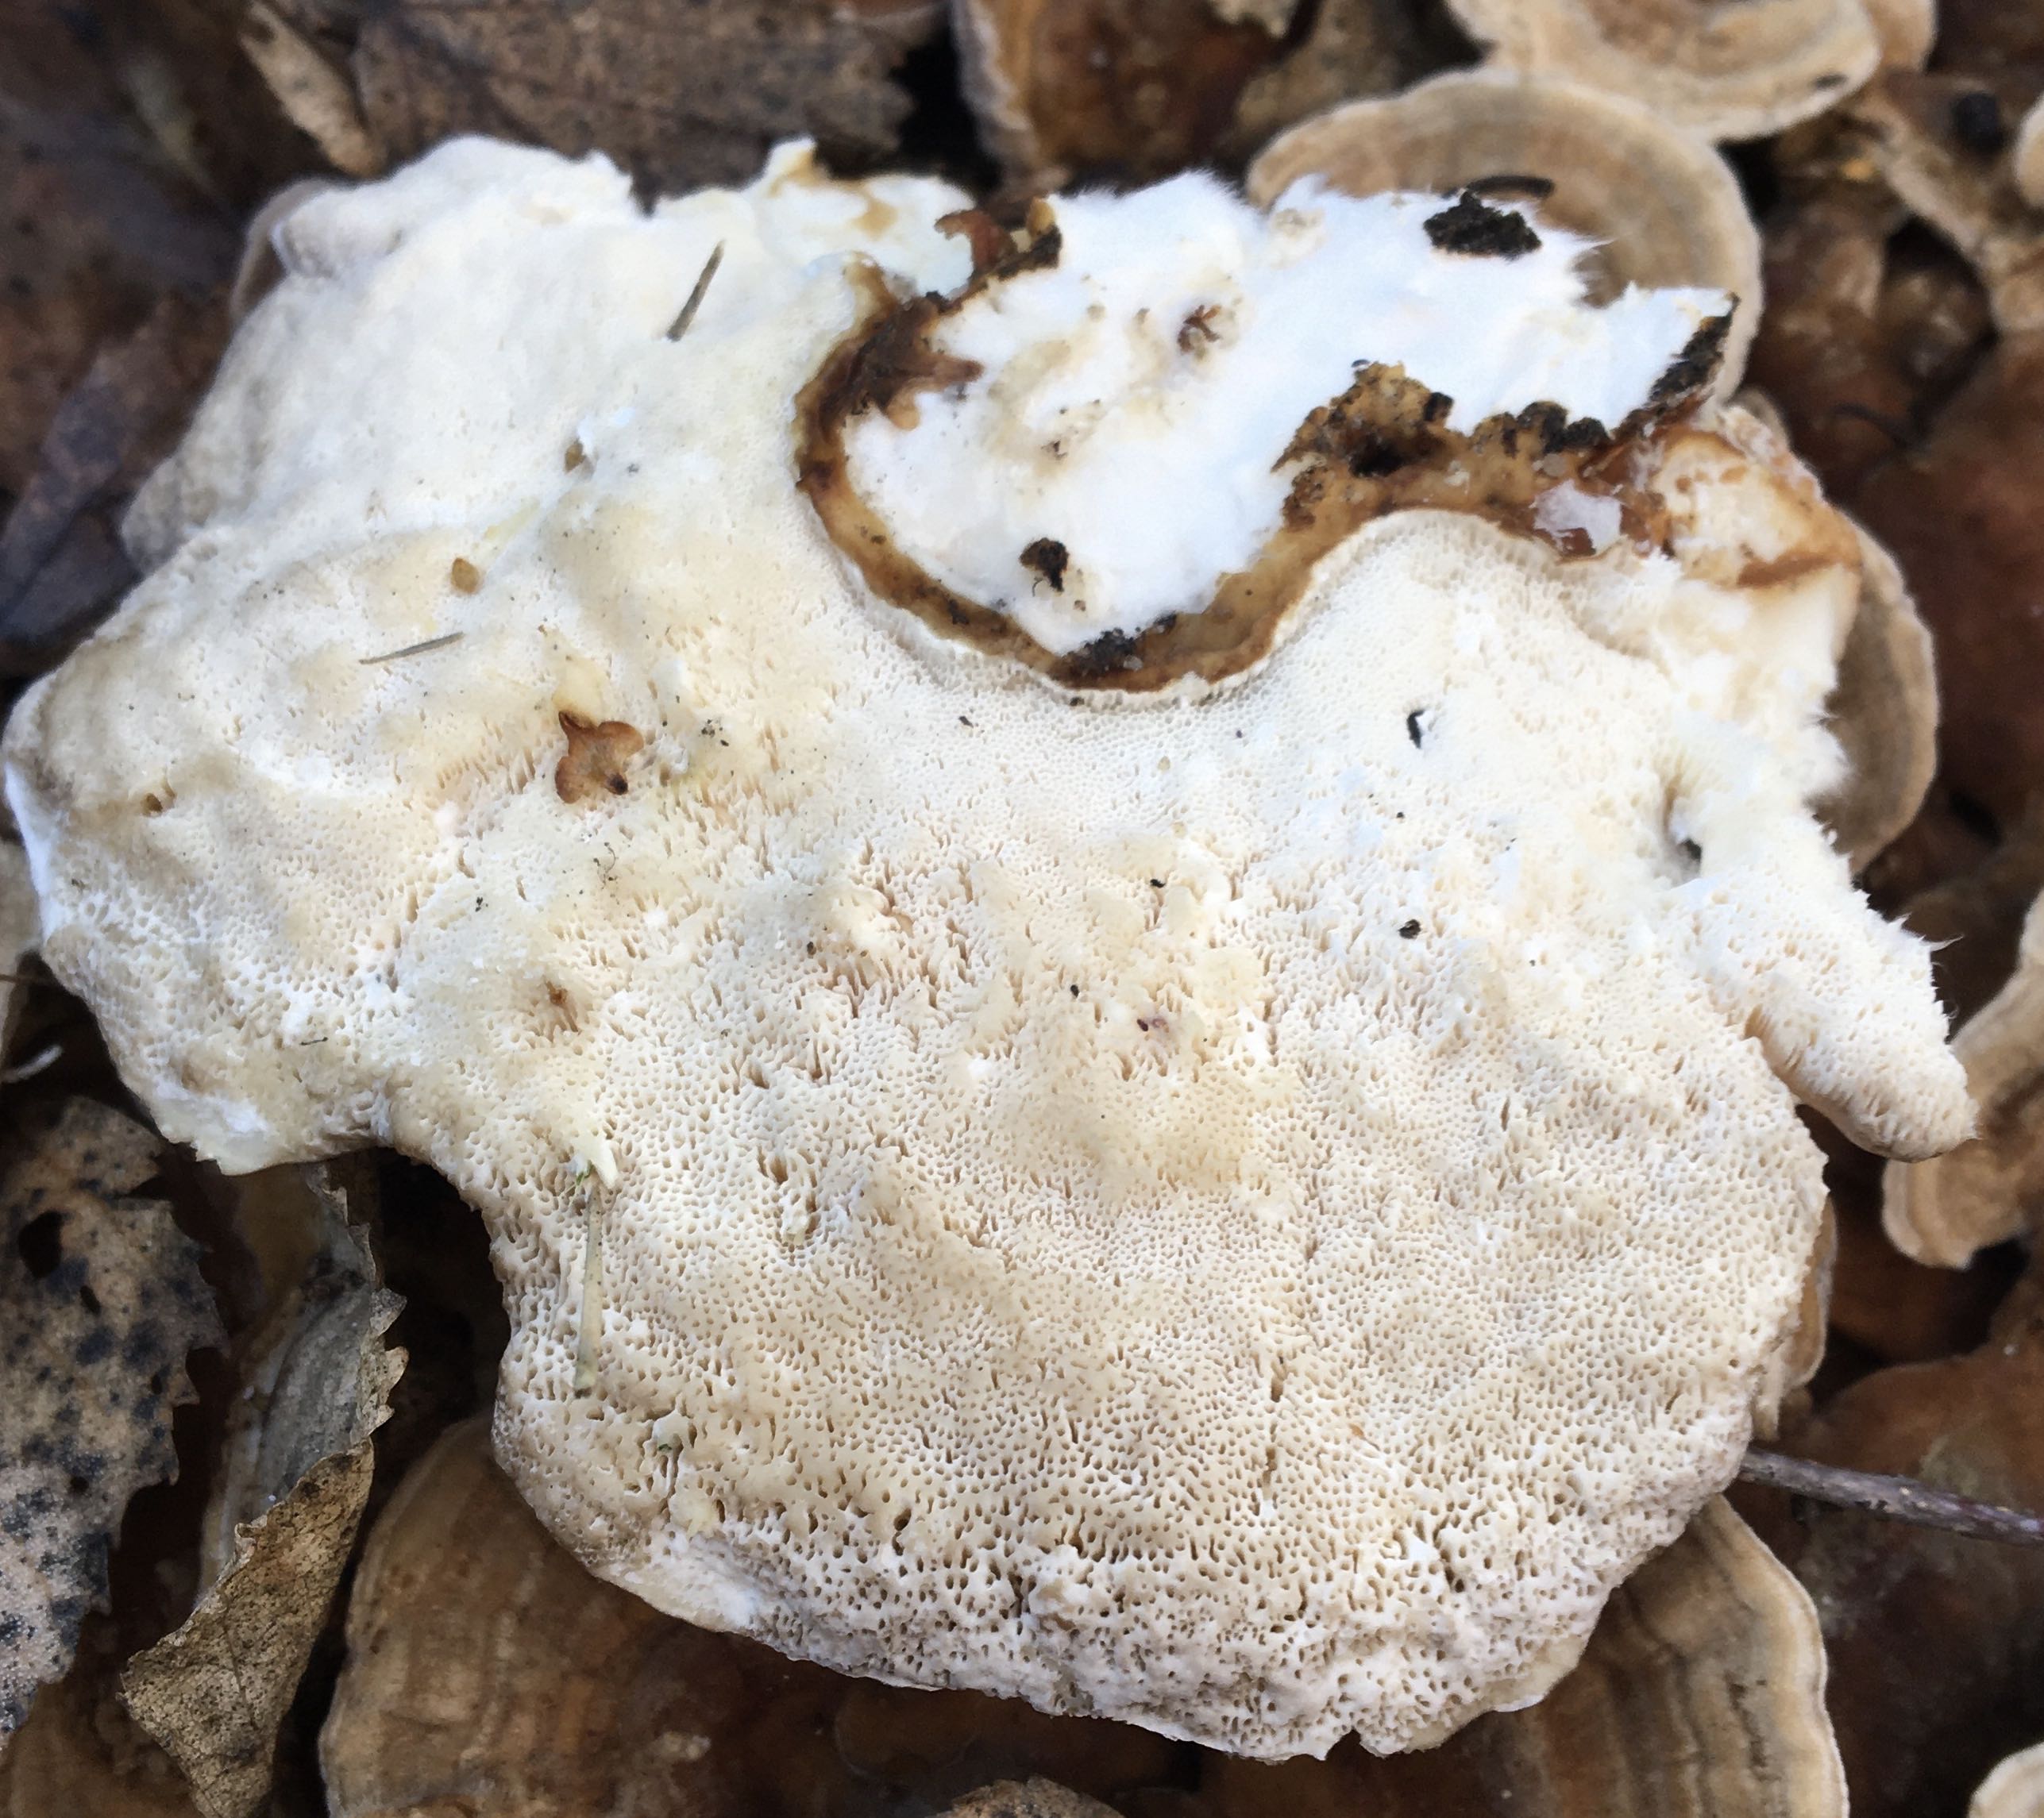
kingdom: Fungi
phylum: Basidiomycota
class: Agaricomycetes
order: Polyporales
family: Polyporaceae
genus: Trametes
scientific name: Trametes versicolor
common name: broget læderporesvamp
